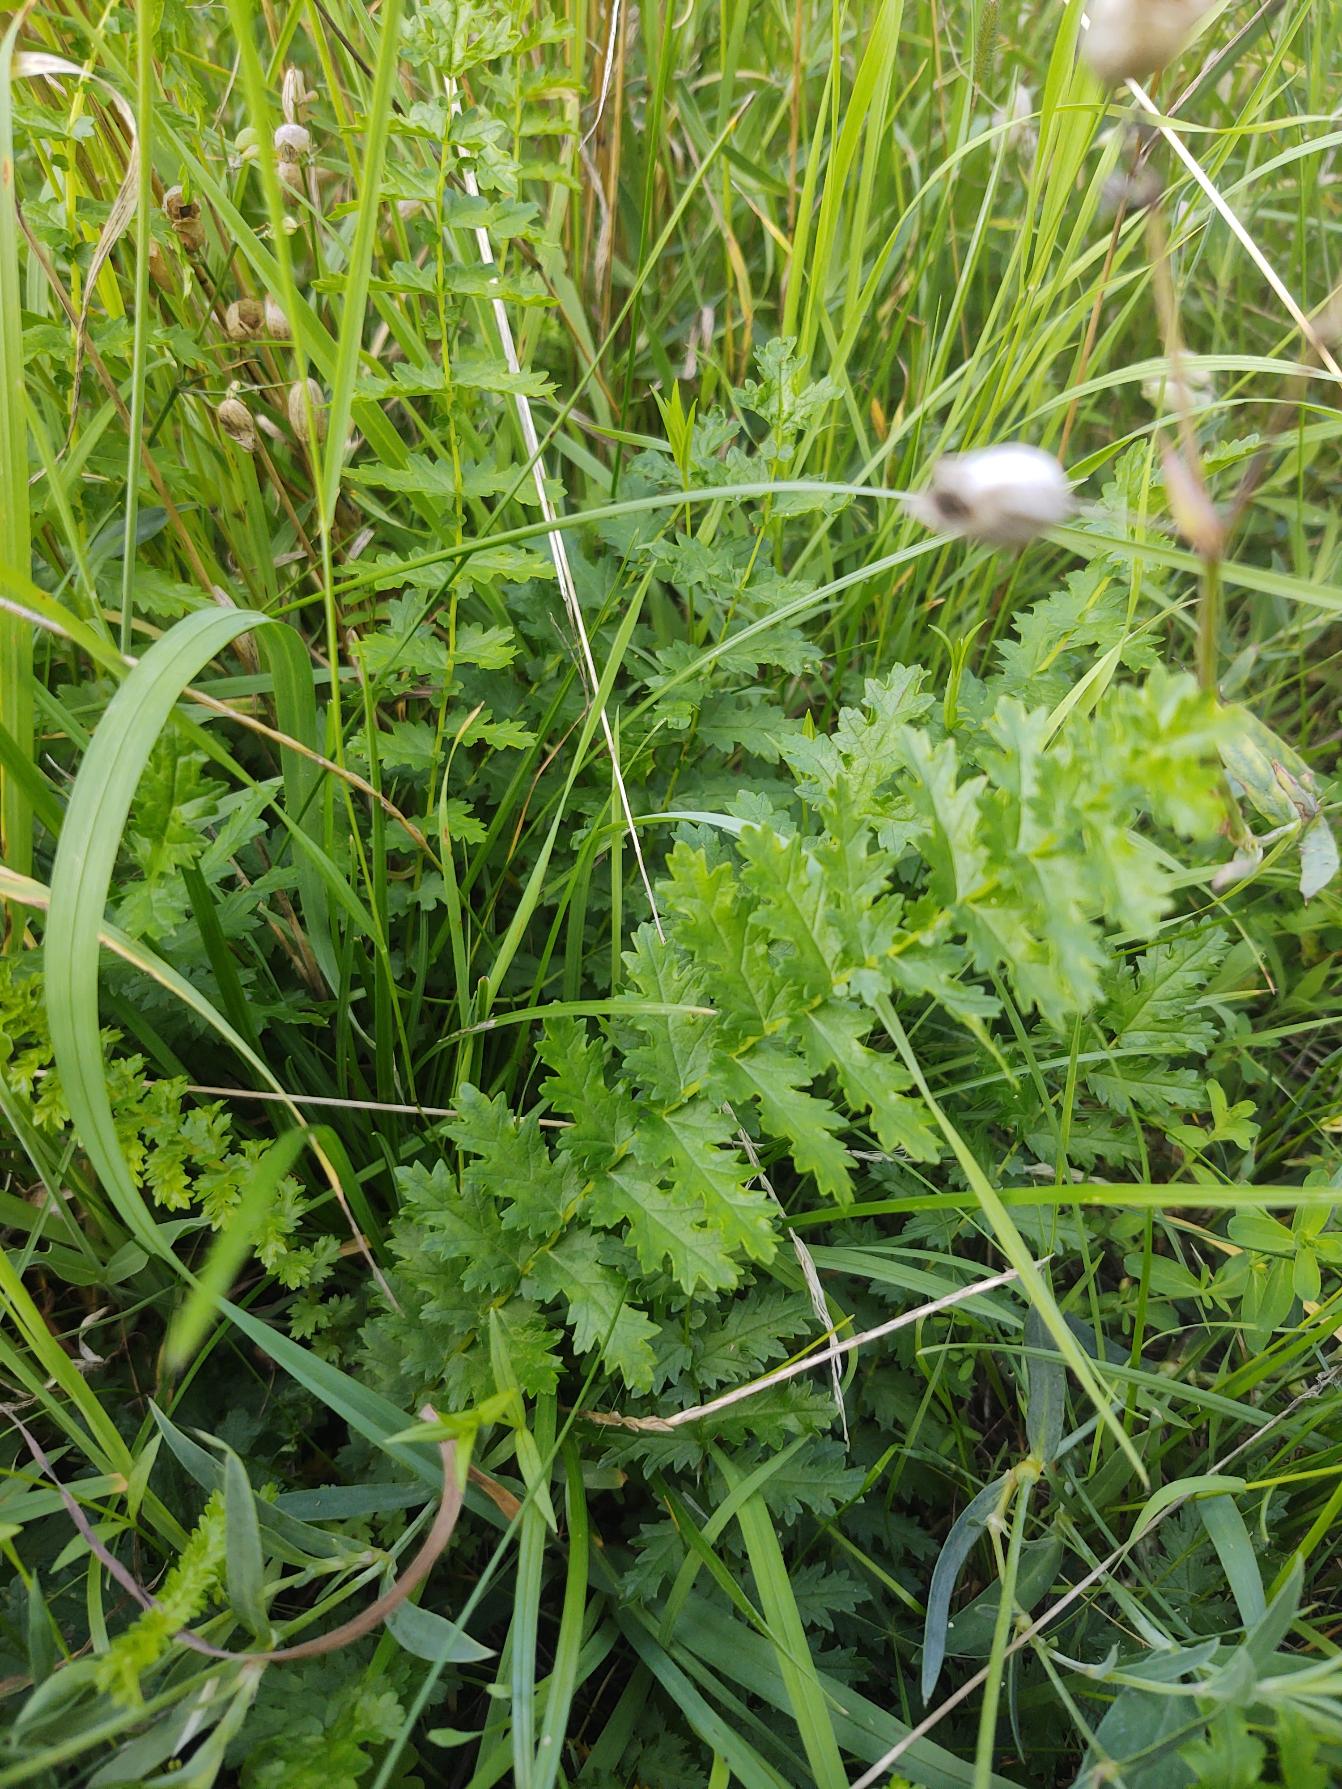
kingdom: Plantae
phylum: Tracheophyta
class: Magnoliopsida
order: Rosales
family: Rosaceae
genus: Filipendula
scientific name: Filipendula vulgaris
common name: Knoldet mjødurt
